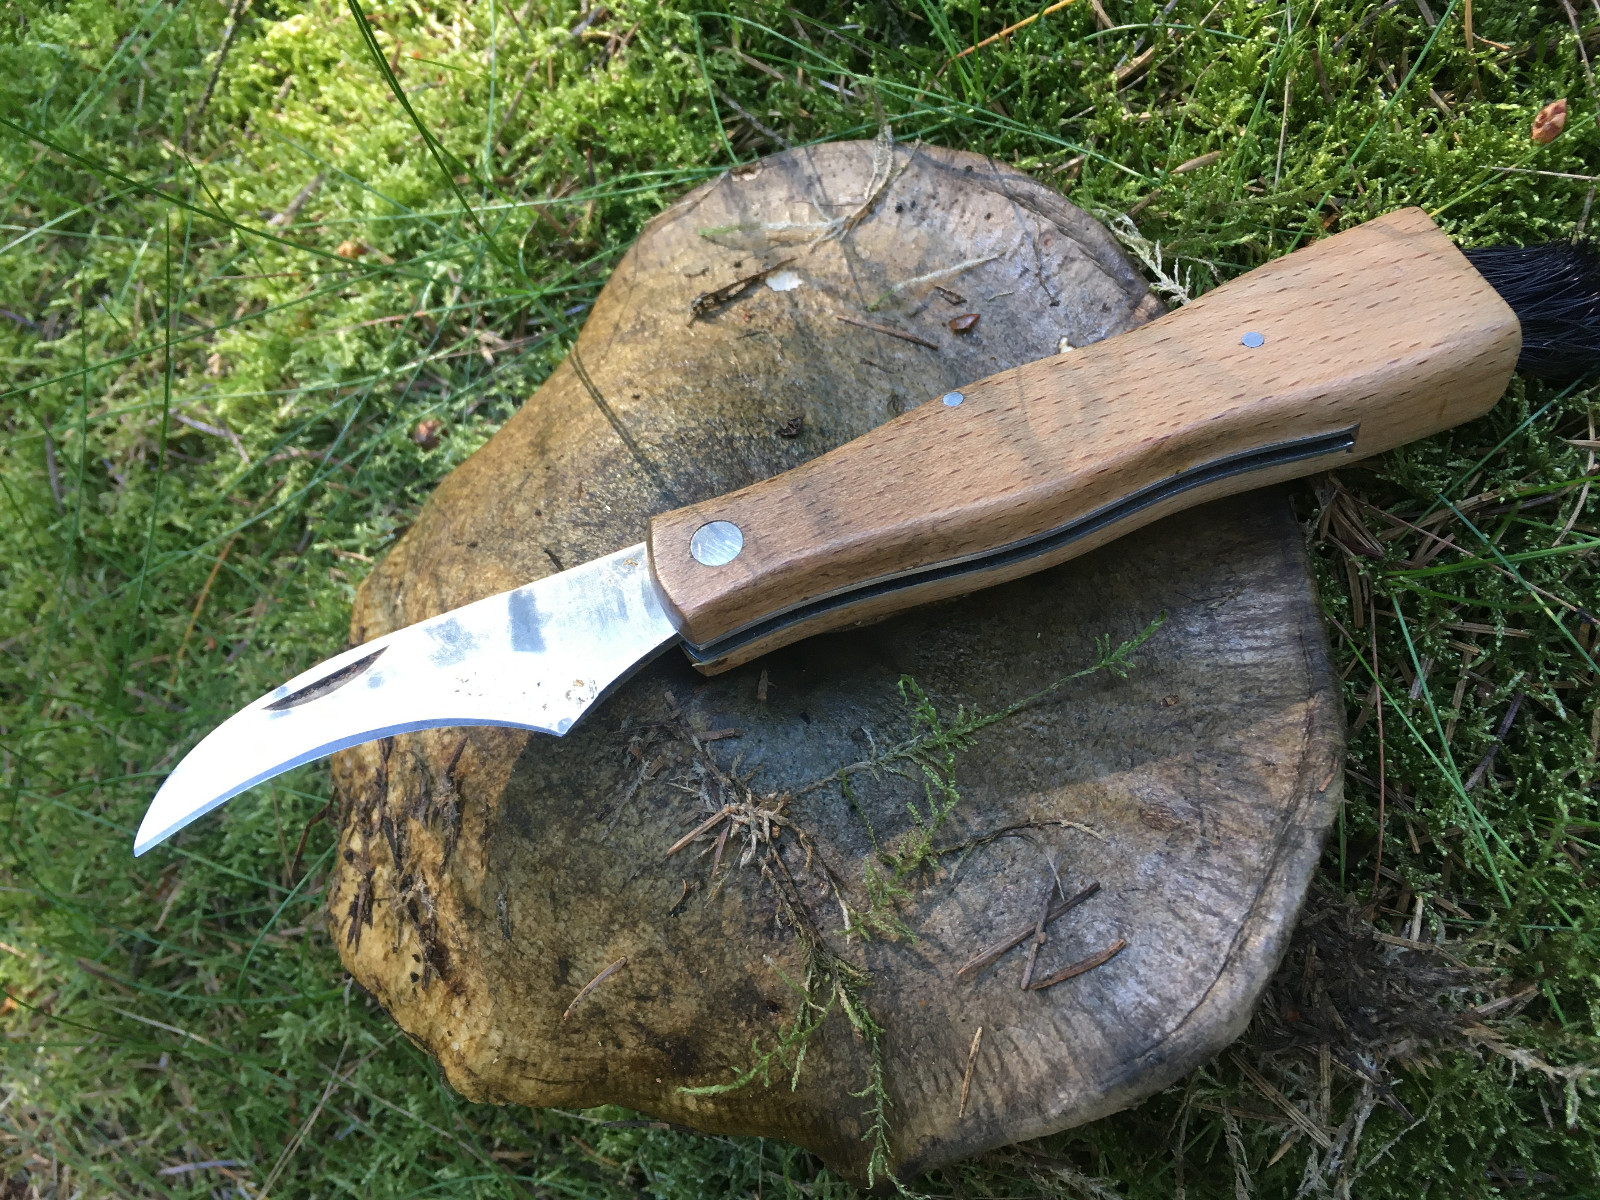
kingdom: Fungi
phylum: Basidiomycota
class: Agaricomycetes
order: Russulales
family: Russulaceae
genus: Lactarius
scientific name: Lactarius necator
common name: manddraber-mælkehat
